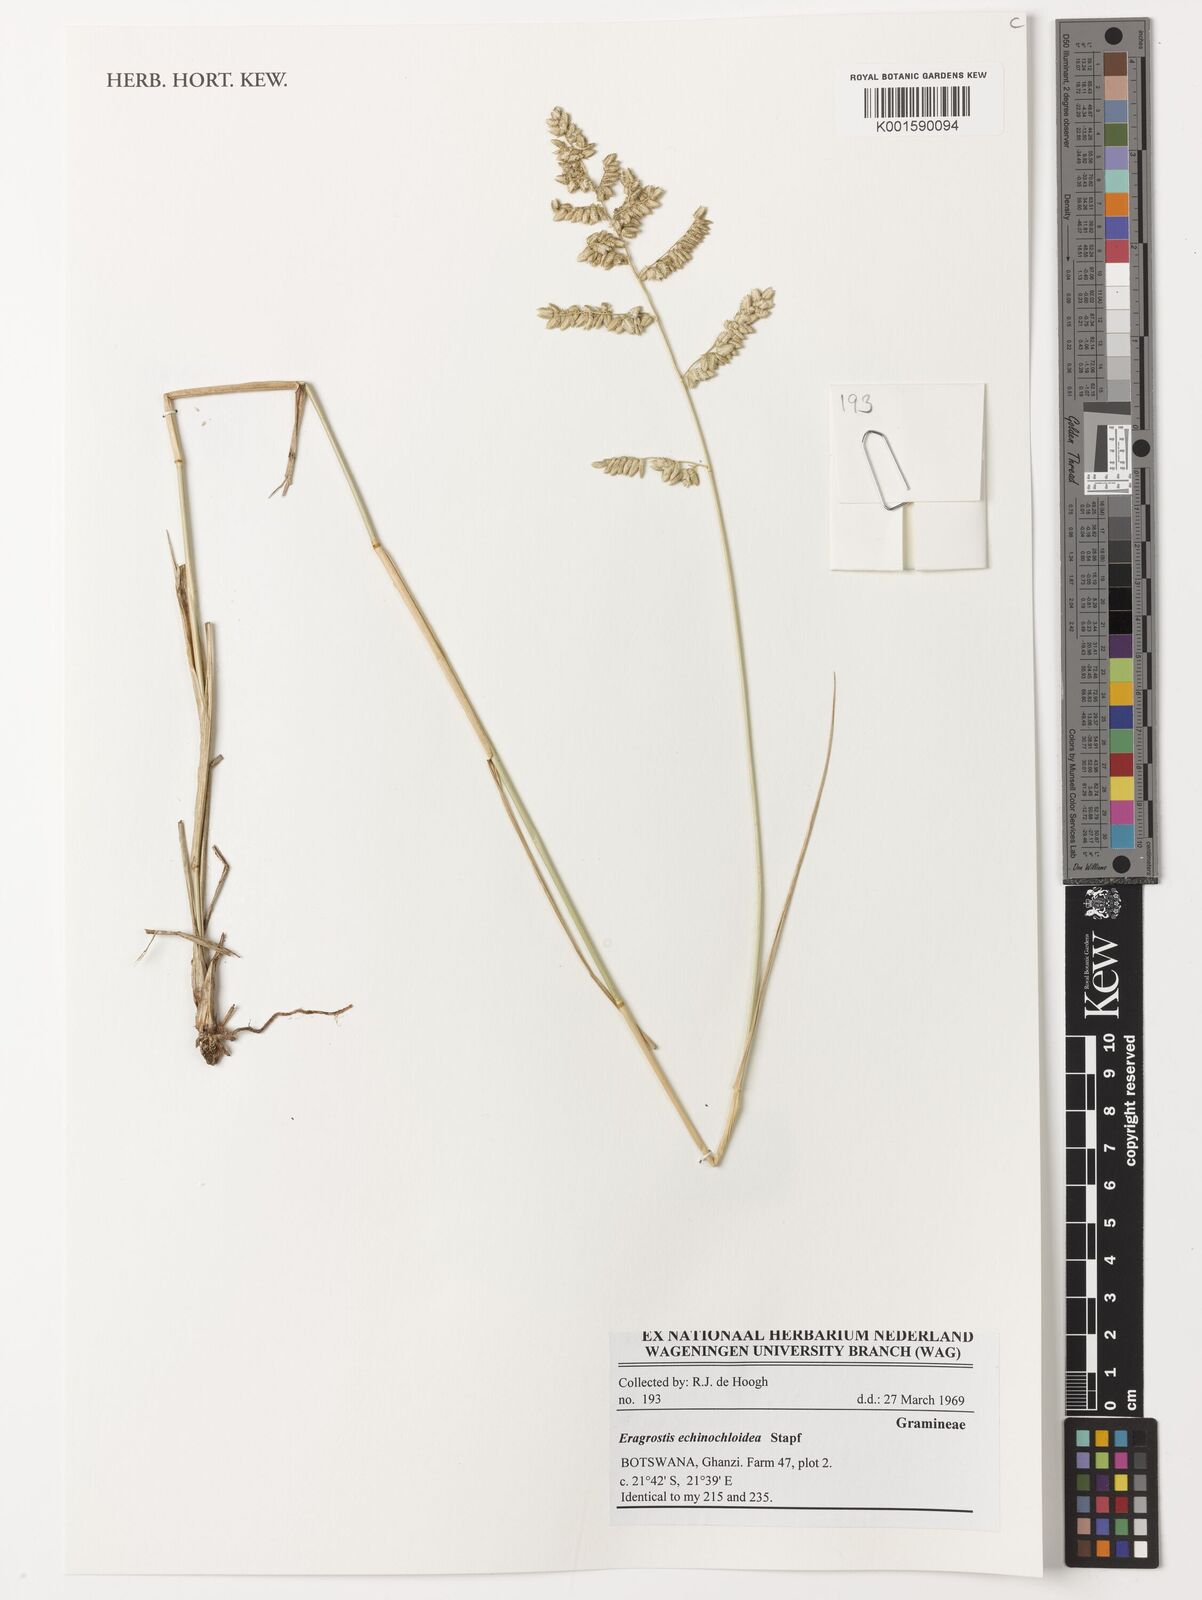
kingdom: Plantae
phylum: Tracheophyta
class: Liliopsida
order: Poales
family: Poaceae
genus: Eragrostis
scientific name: Eragrostis echinochloidea
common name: African lovegrass
